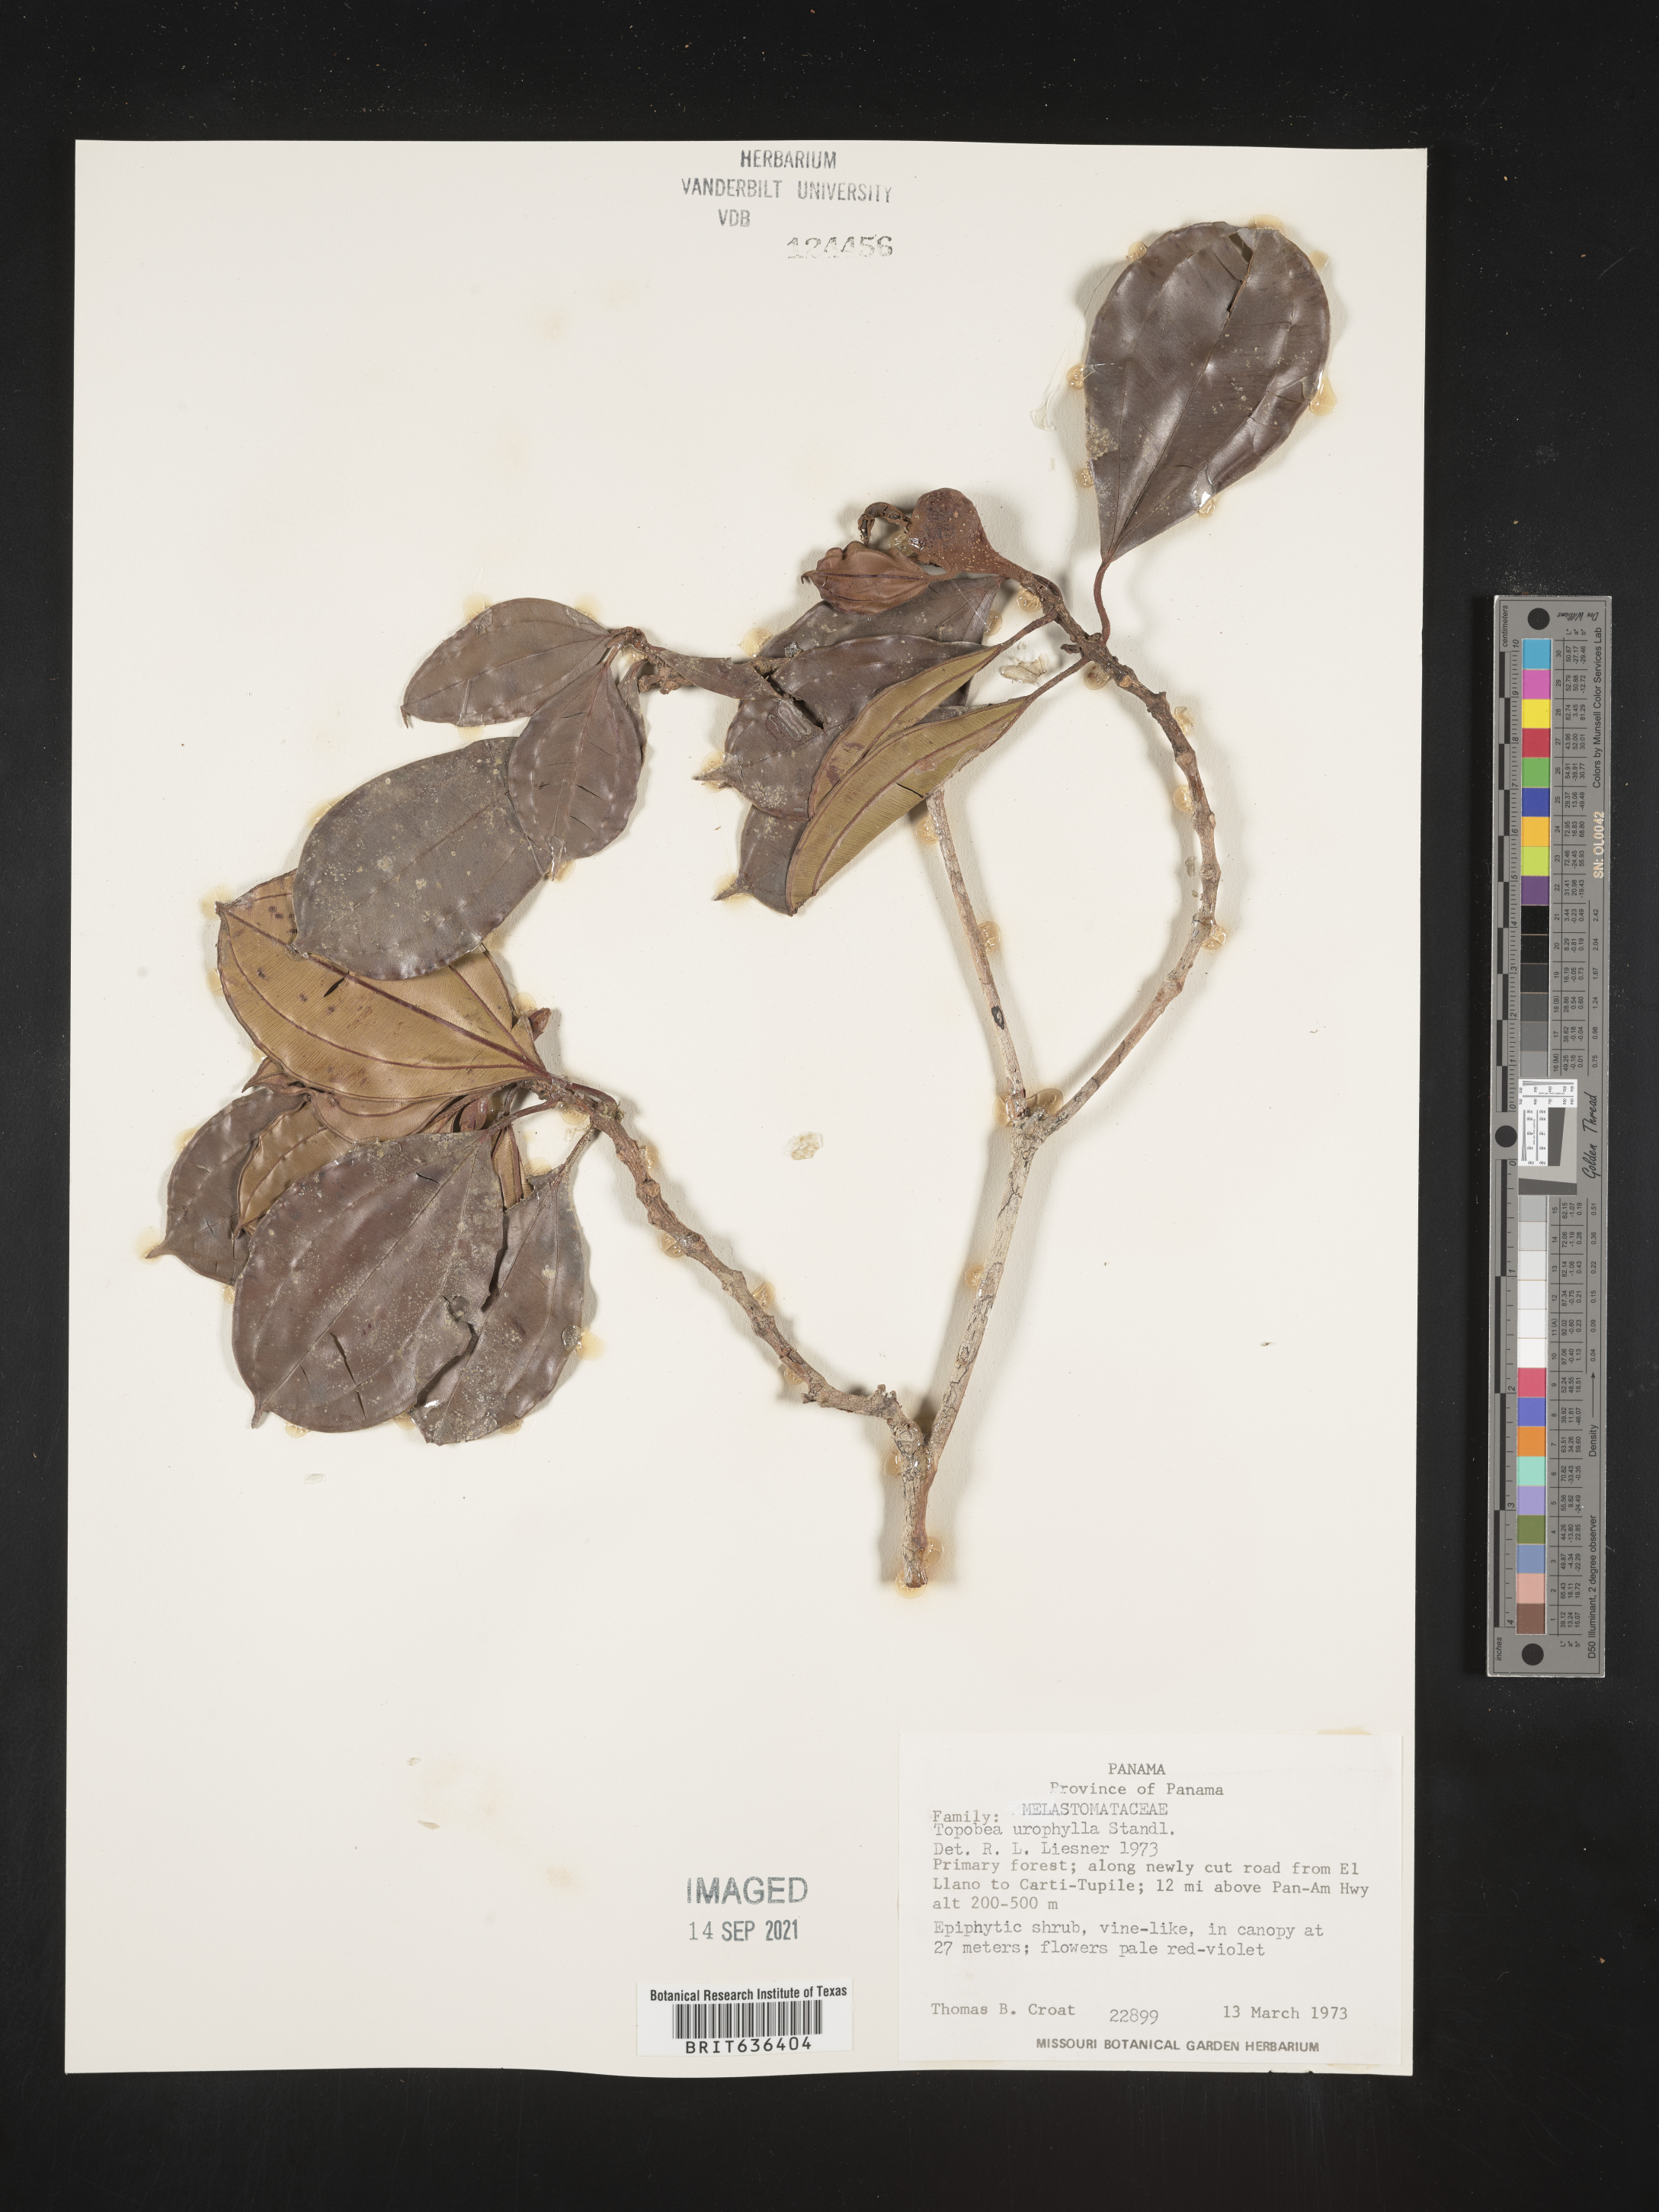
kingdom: Plantae
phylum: Tracheophyta
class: Magnoliopsida
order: Myrtales
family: Melastomataceae
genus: Blakea
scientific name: Blakea
